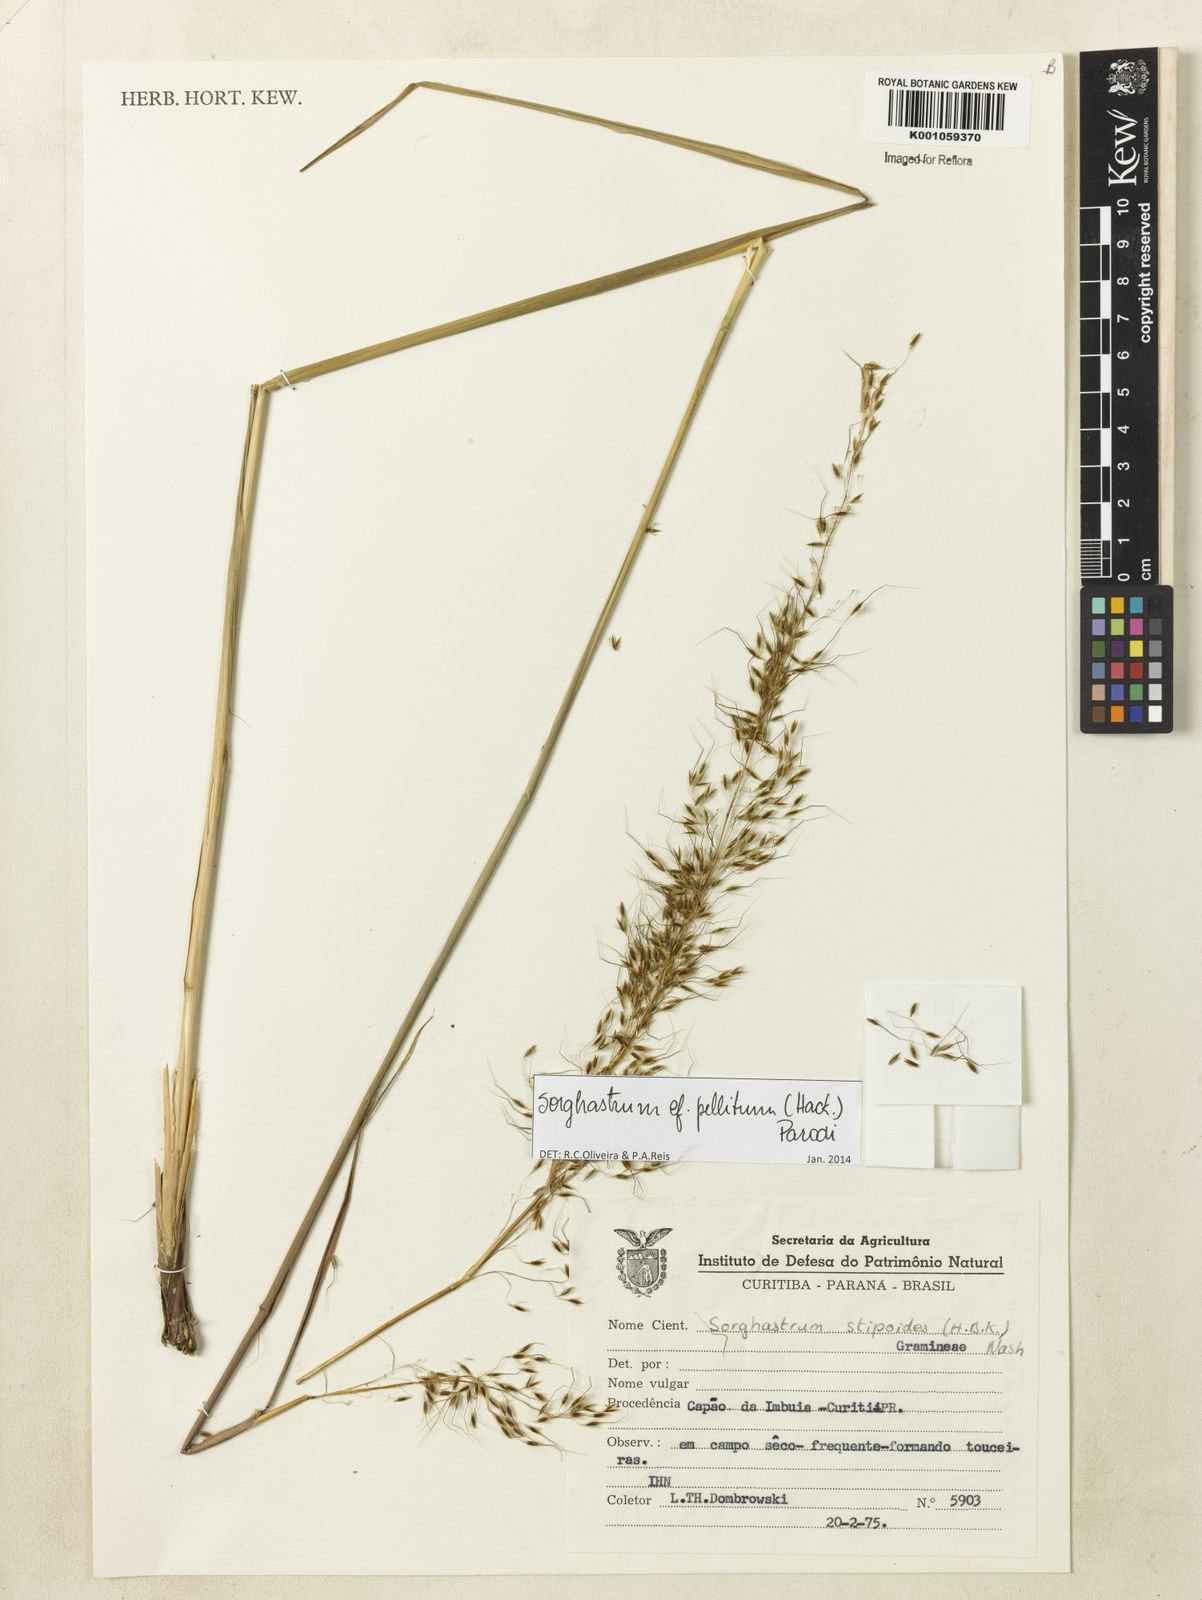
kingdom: Plantae
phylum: Tracheophyta
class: Liliopsida
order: Poales
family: Poaceae
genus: Sorghastrum
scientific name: Sorghastrum pellitum
